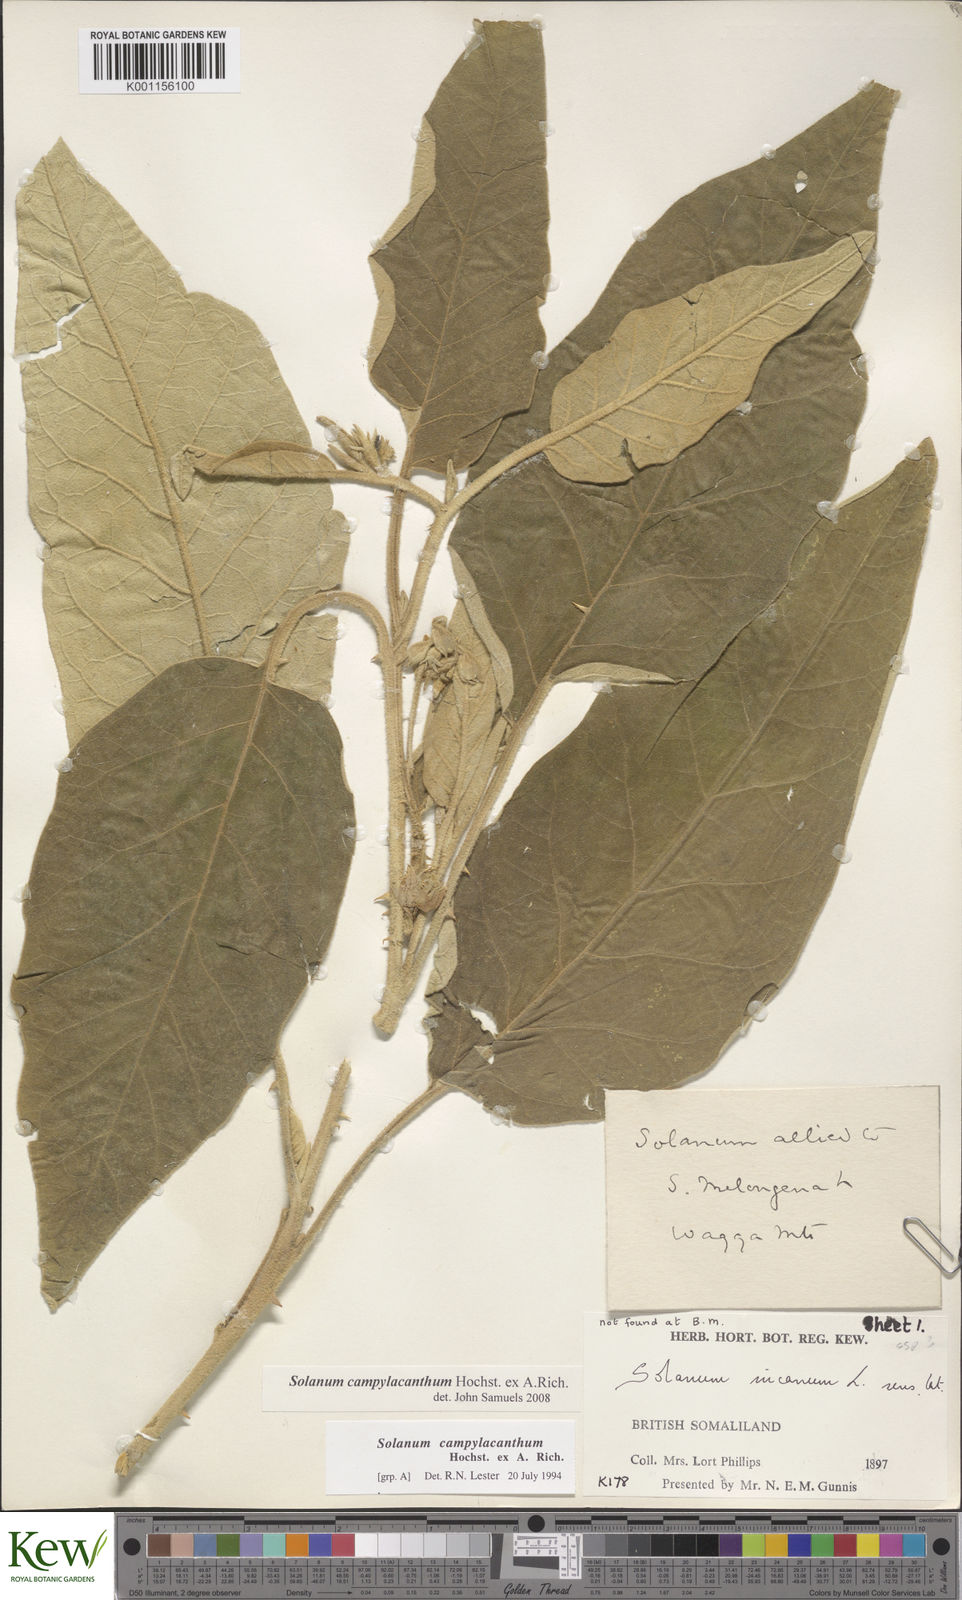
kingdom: Plantae
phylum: Tracheophyta
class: Magnoliopsida
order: Solanales
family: Solanaceae
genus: Solanum
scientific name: Solanum campylacanthum
